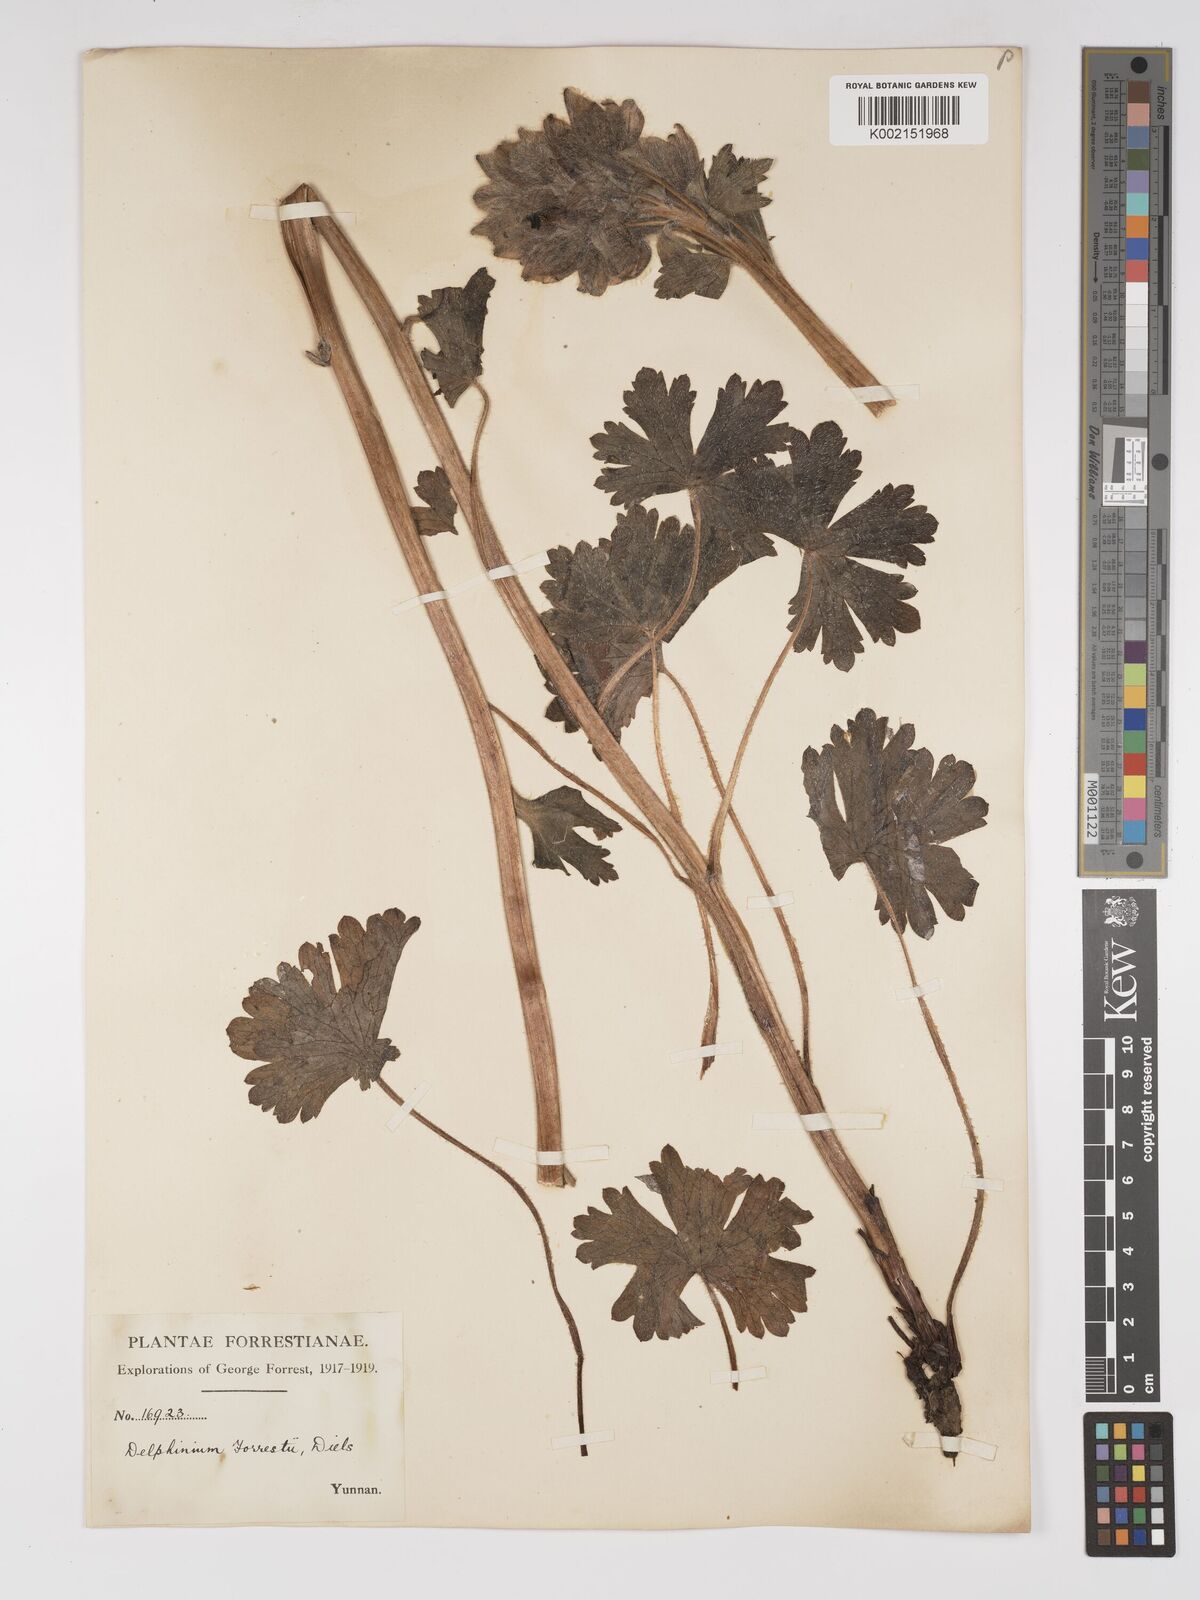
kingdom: Plantae
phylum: Tracheophyta
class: Magnoliopsida
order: Ranunculales
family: Ranunculaceae
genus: Delphinium
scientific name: Delphinium forrestii
